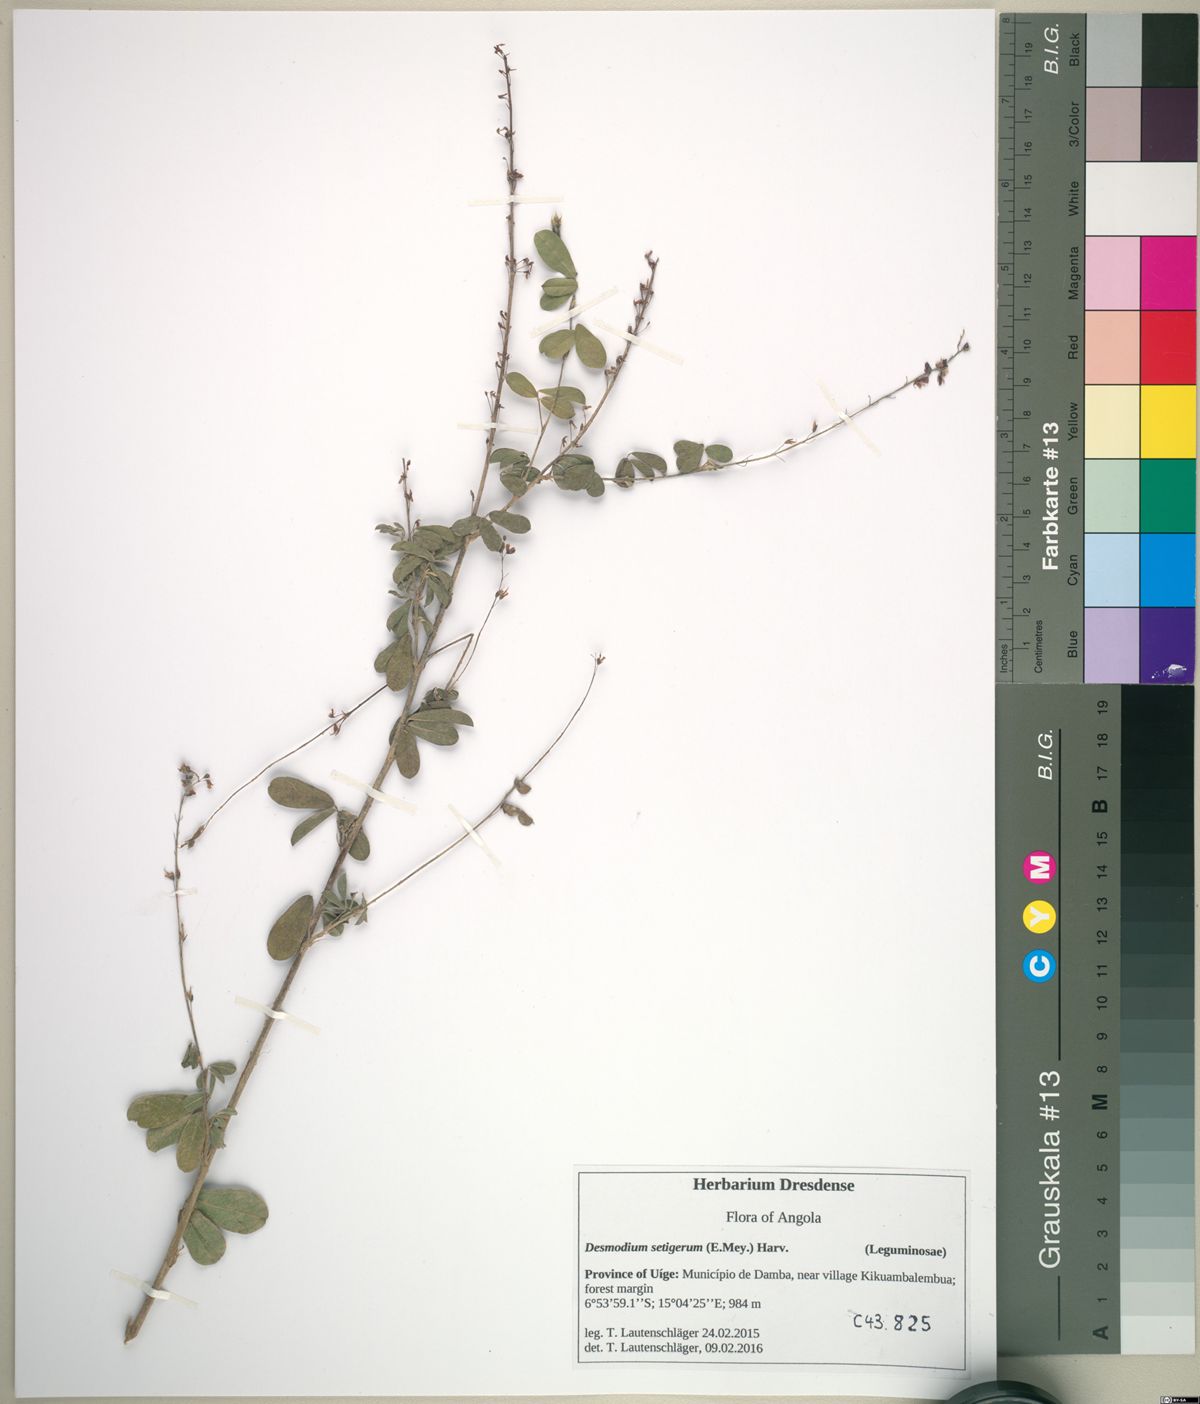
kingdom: Plantae
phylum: Tracheophyta
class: Magnoliopsida
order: Fabales
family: Fabaceae
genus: Grona
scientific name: Grona ramosissima
